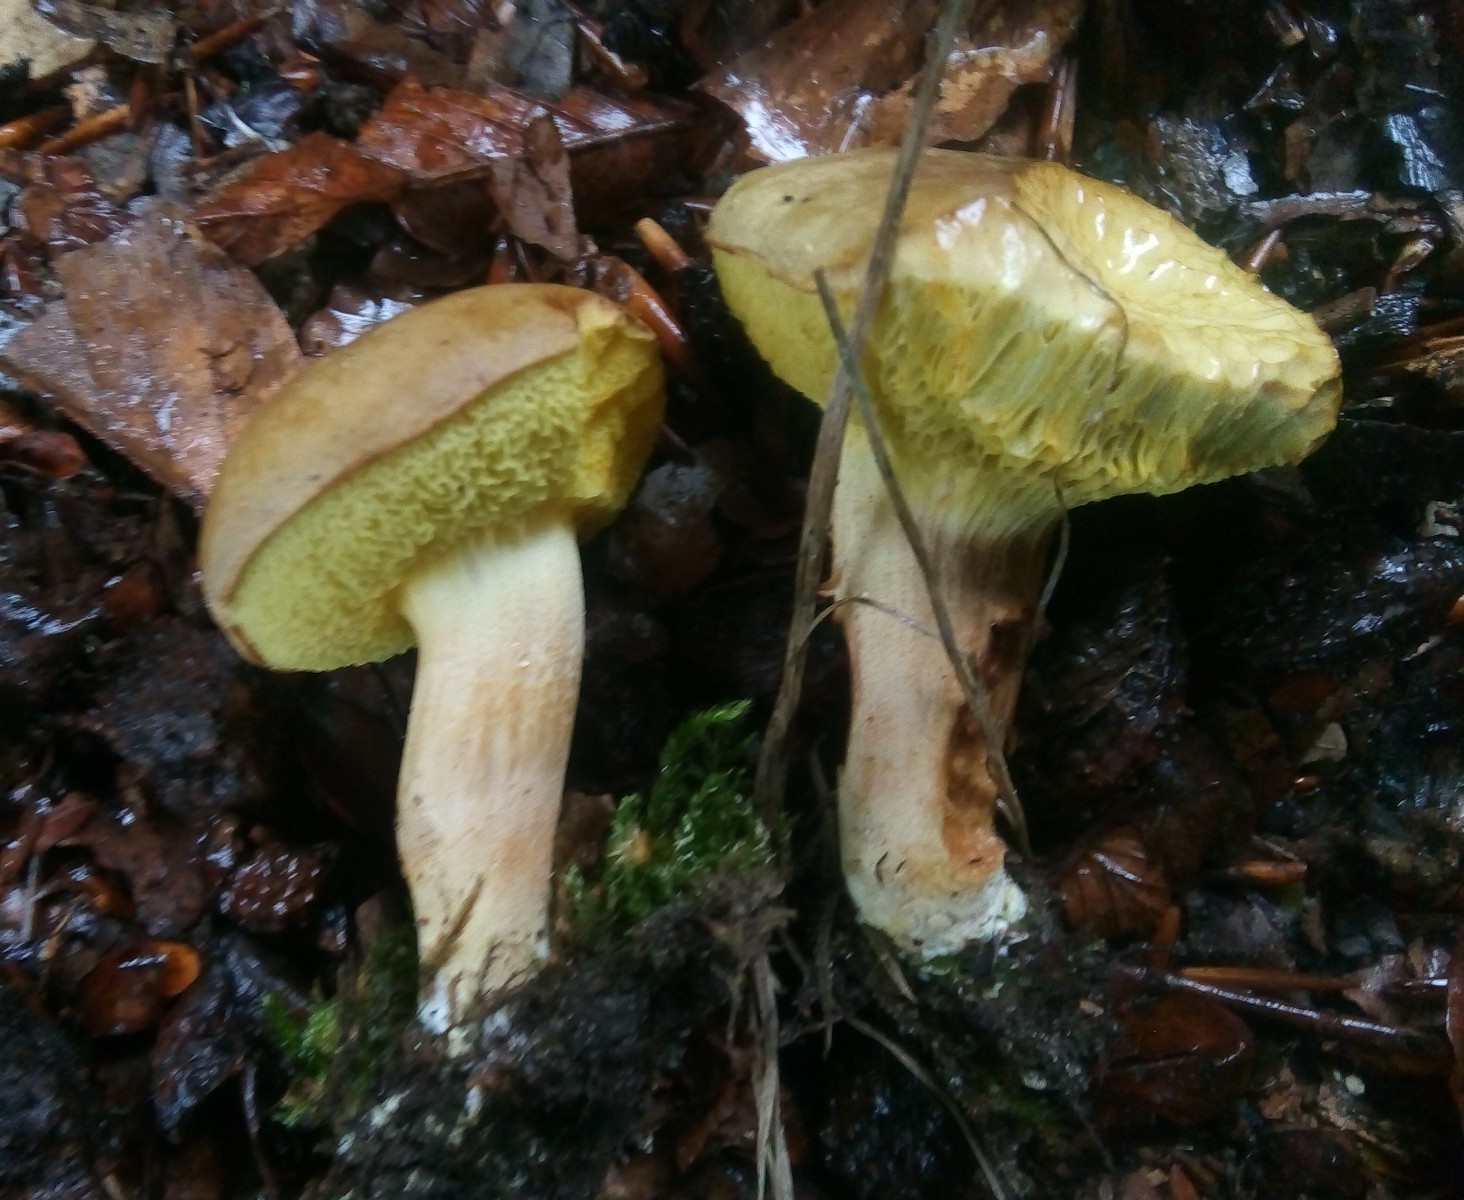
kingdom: Fungi
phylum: Basidiomycota
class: Agaricomycetes
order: Boletales
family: Boletaceae
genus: Xerocomus
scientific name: Xerocomus subtomentosus
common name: filtet rørhat
